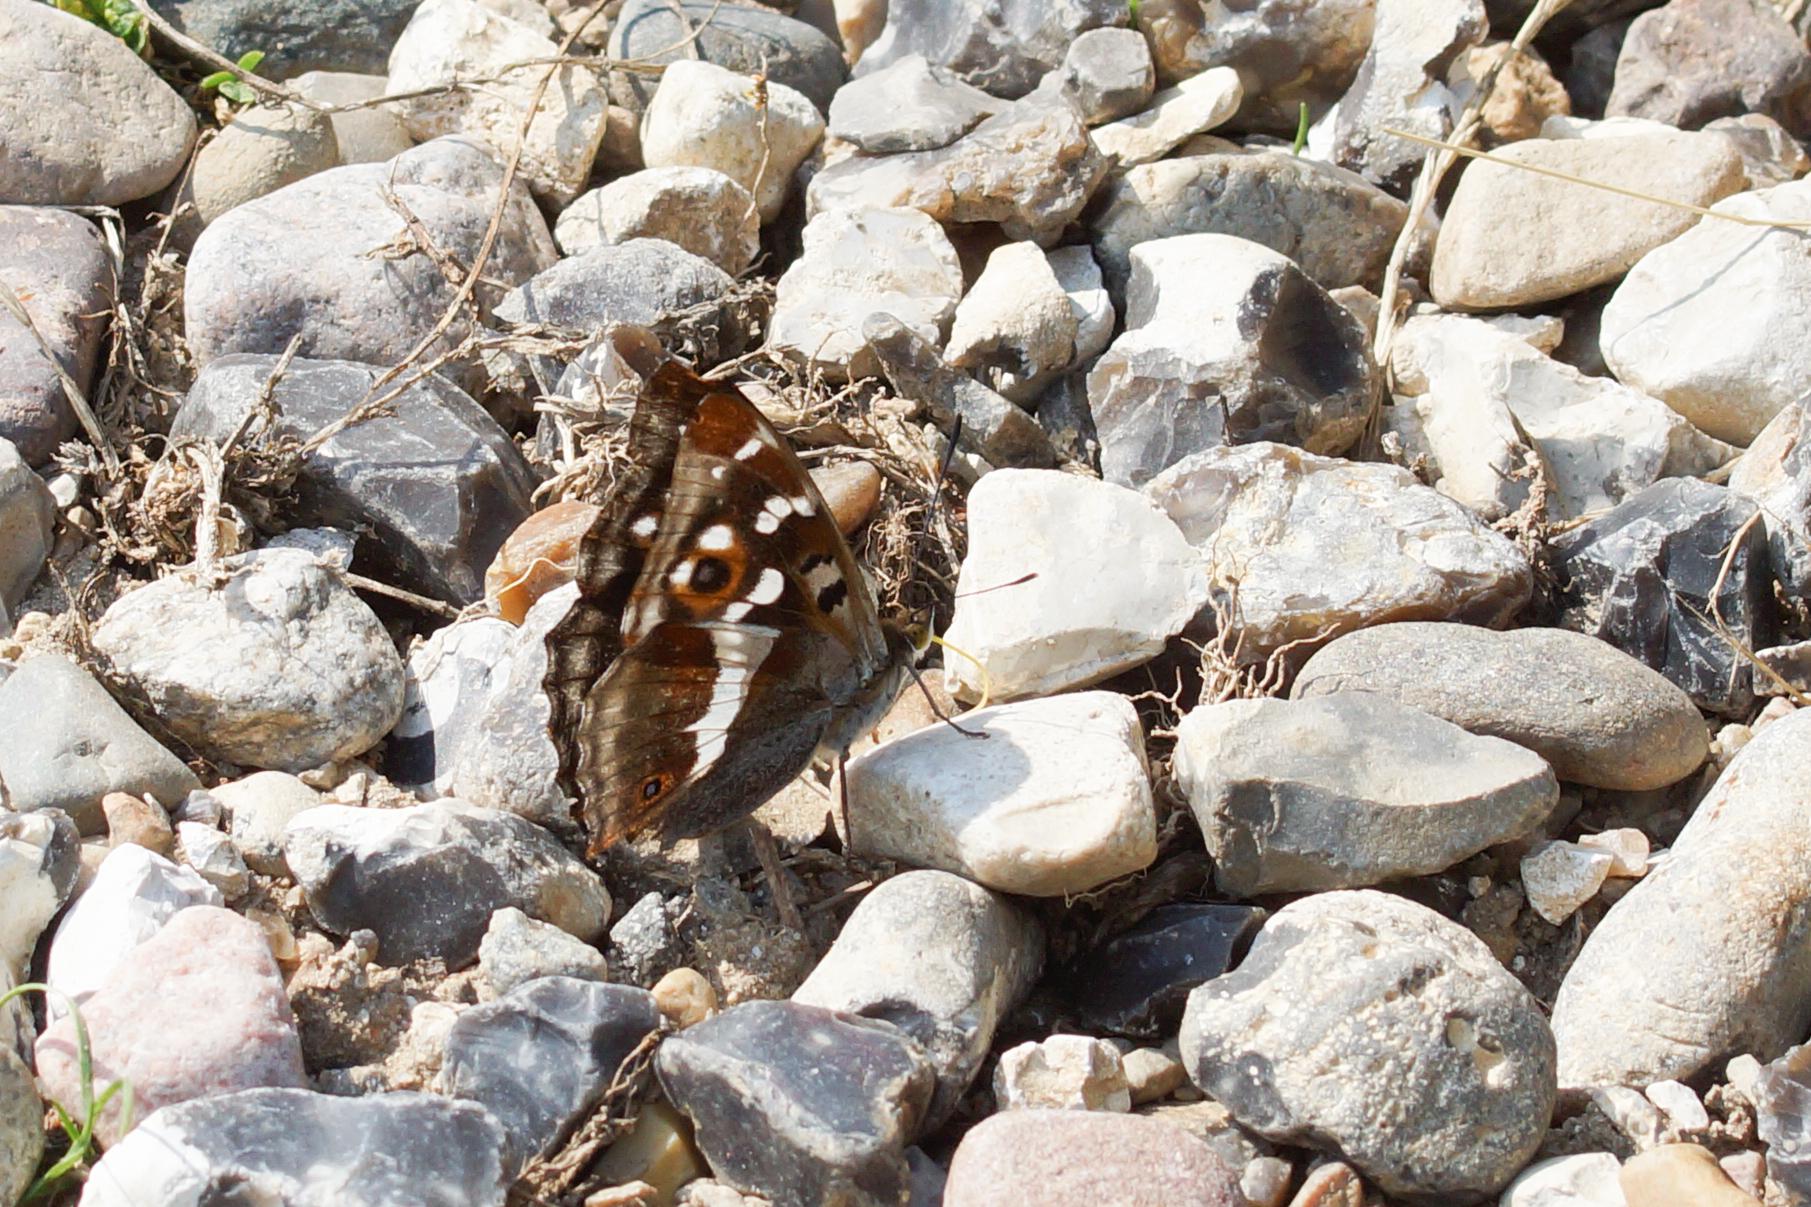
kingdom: Animalia
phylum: Arthropoda
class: Insecta
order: Lepidoptera
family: Nymphalidae
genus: Apatura
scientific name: Apatura iris
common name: Iris
